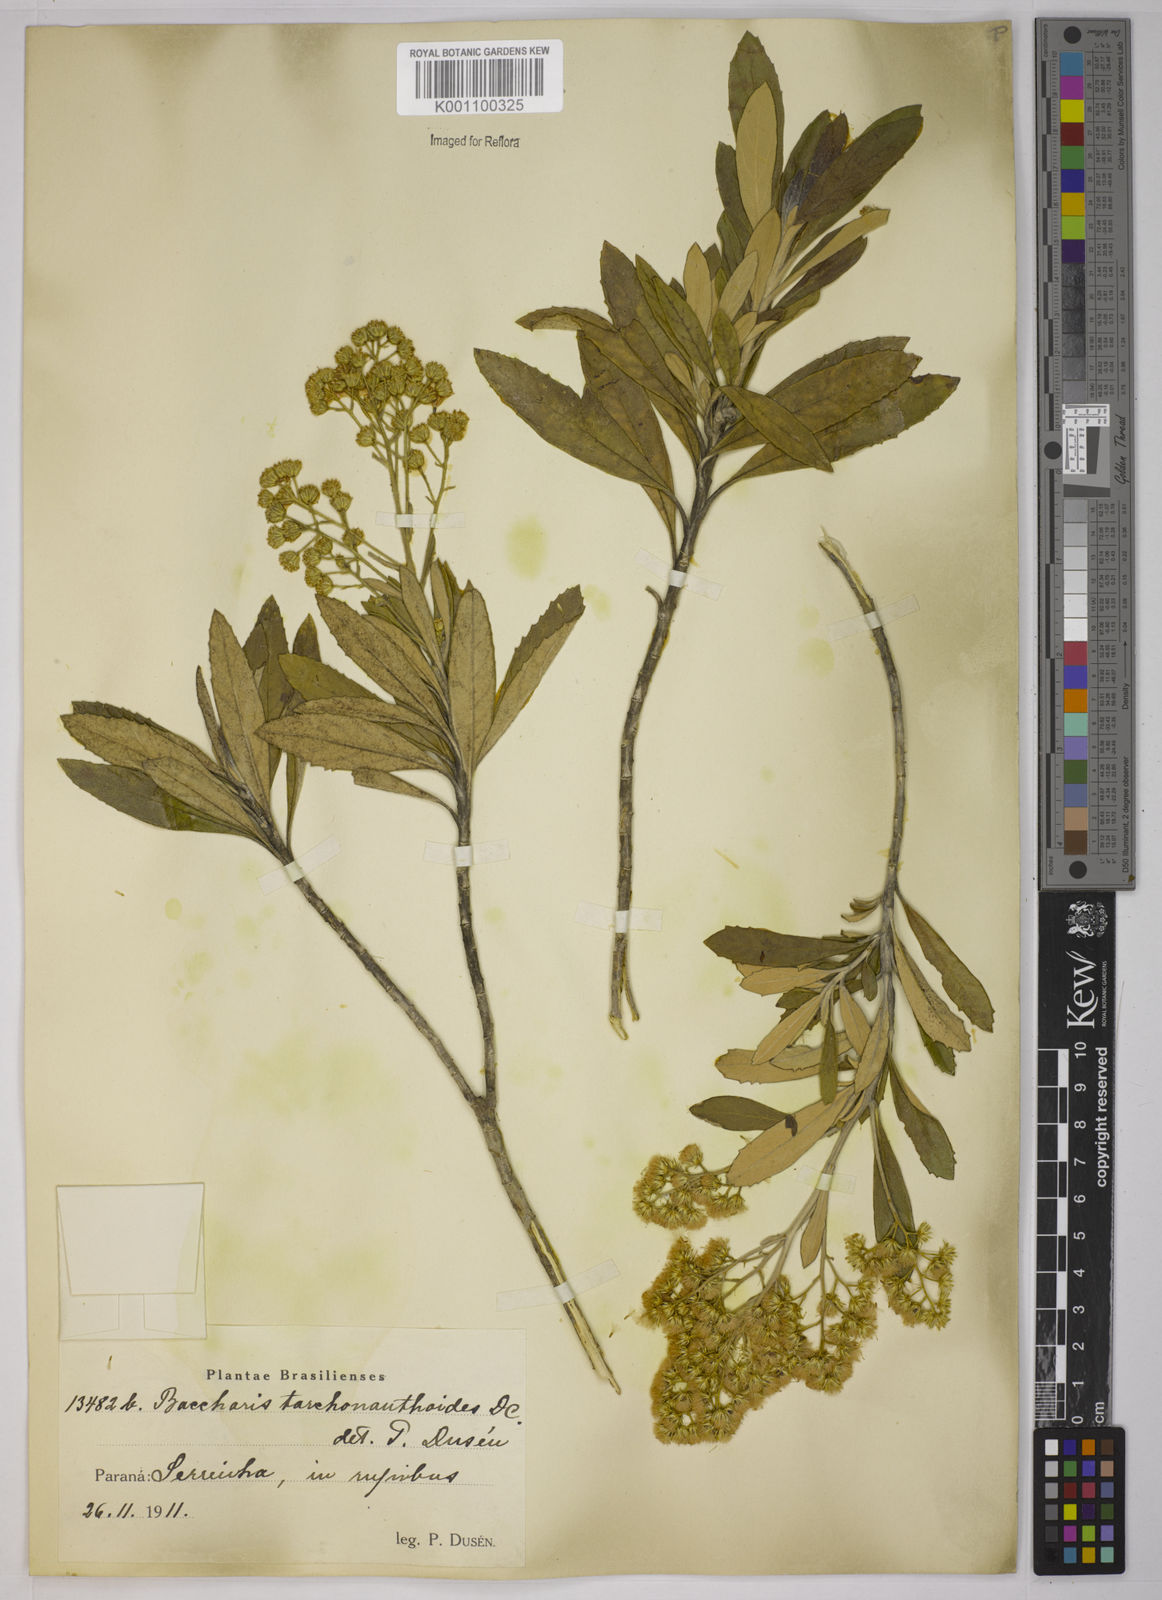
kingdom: Plantae
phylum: Tracheophyta
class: Magnoliopsida
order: Asterales
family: Asteraceae
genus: Baccharis
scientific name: Baccharis
